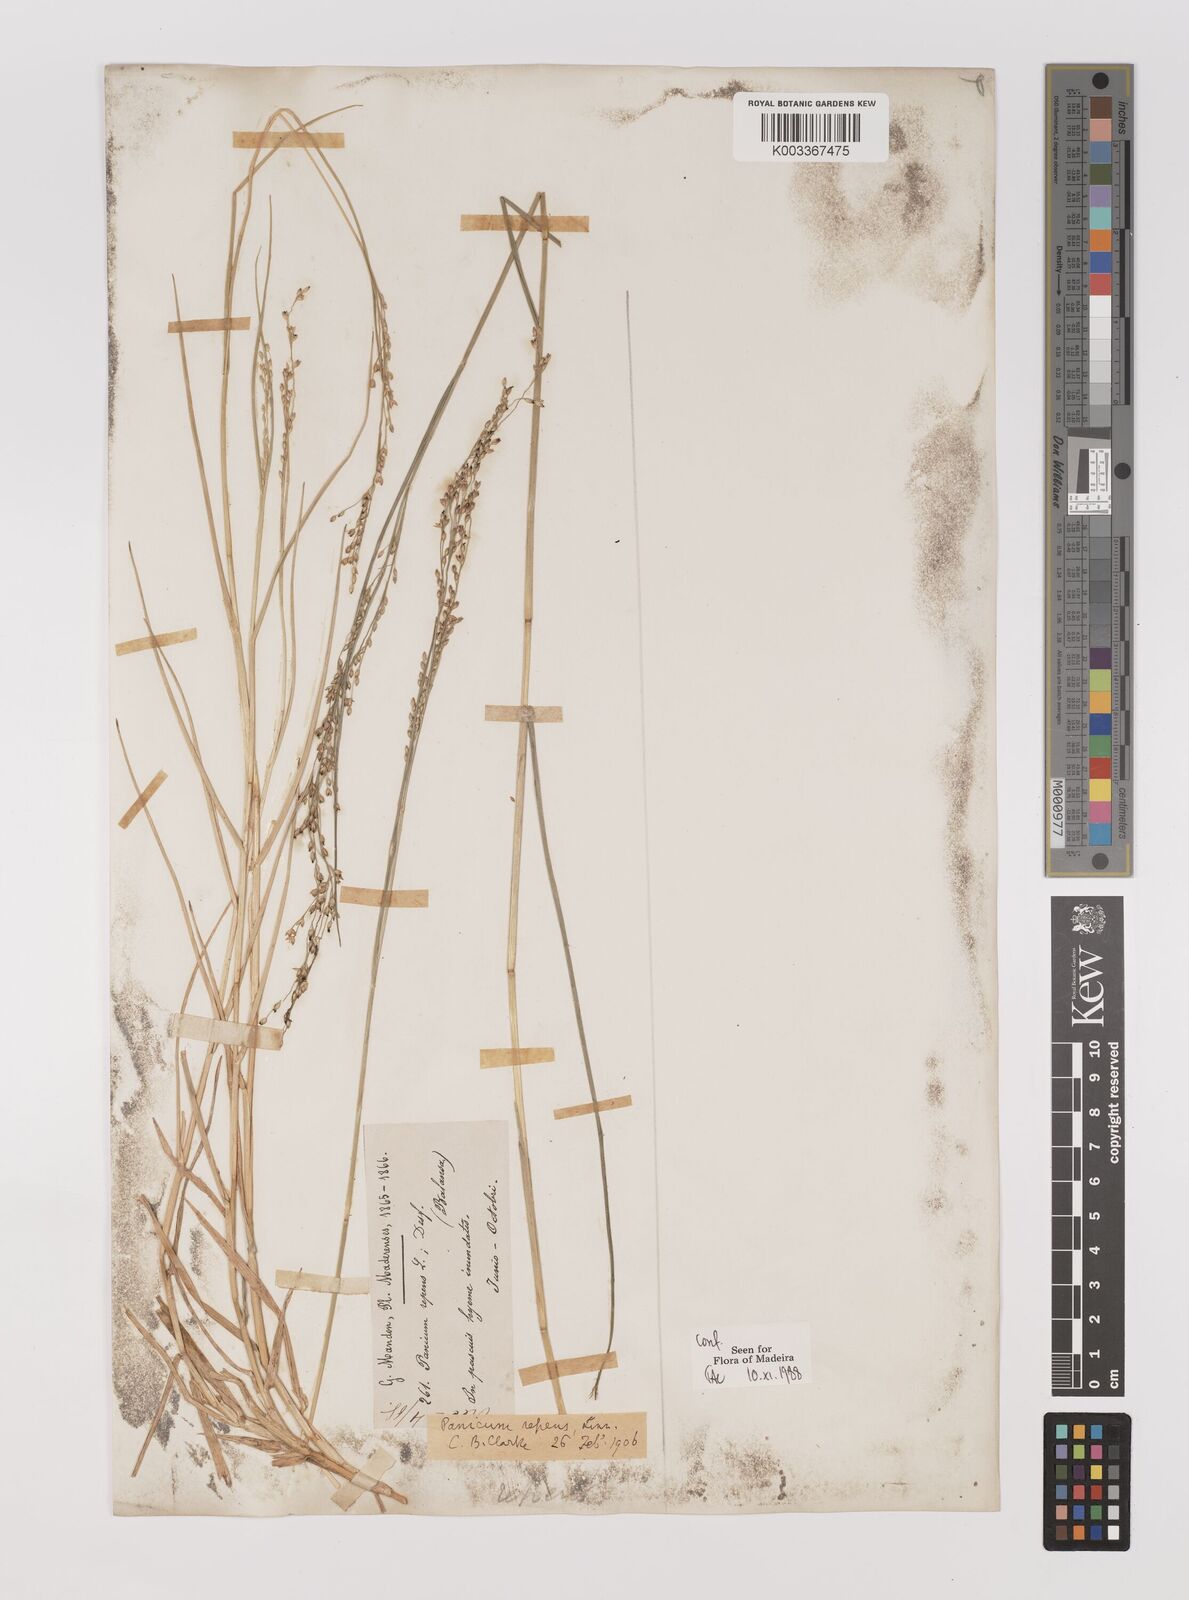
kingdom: Plantae
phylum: Tracheophyta
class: Liliopsida
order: Poales
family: Poaceae
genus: Panicum
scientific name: Panicum repens
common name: Torpedo grass
